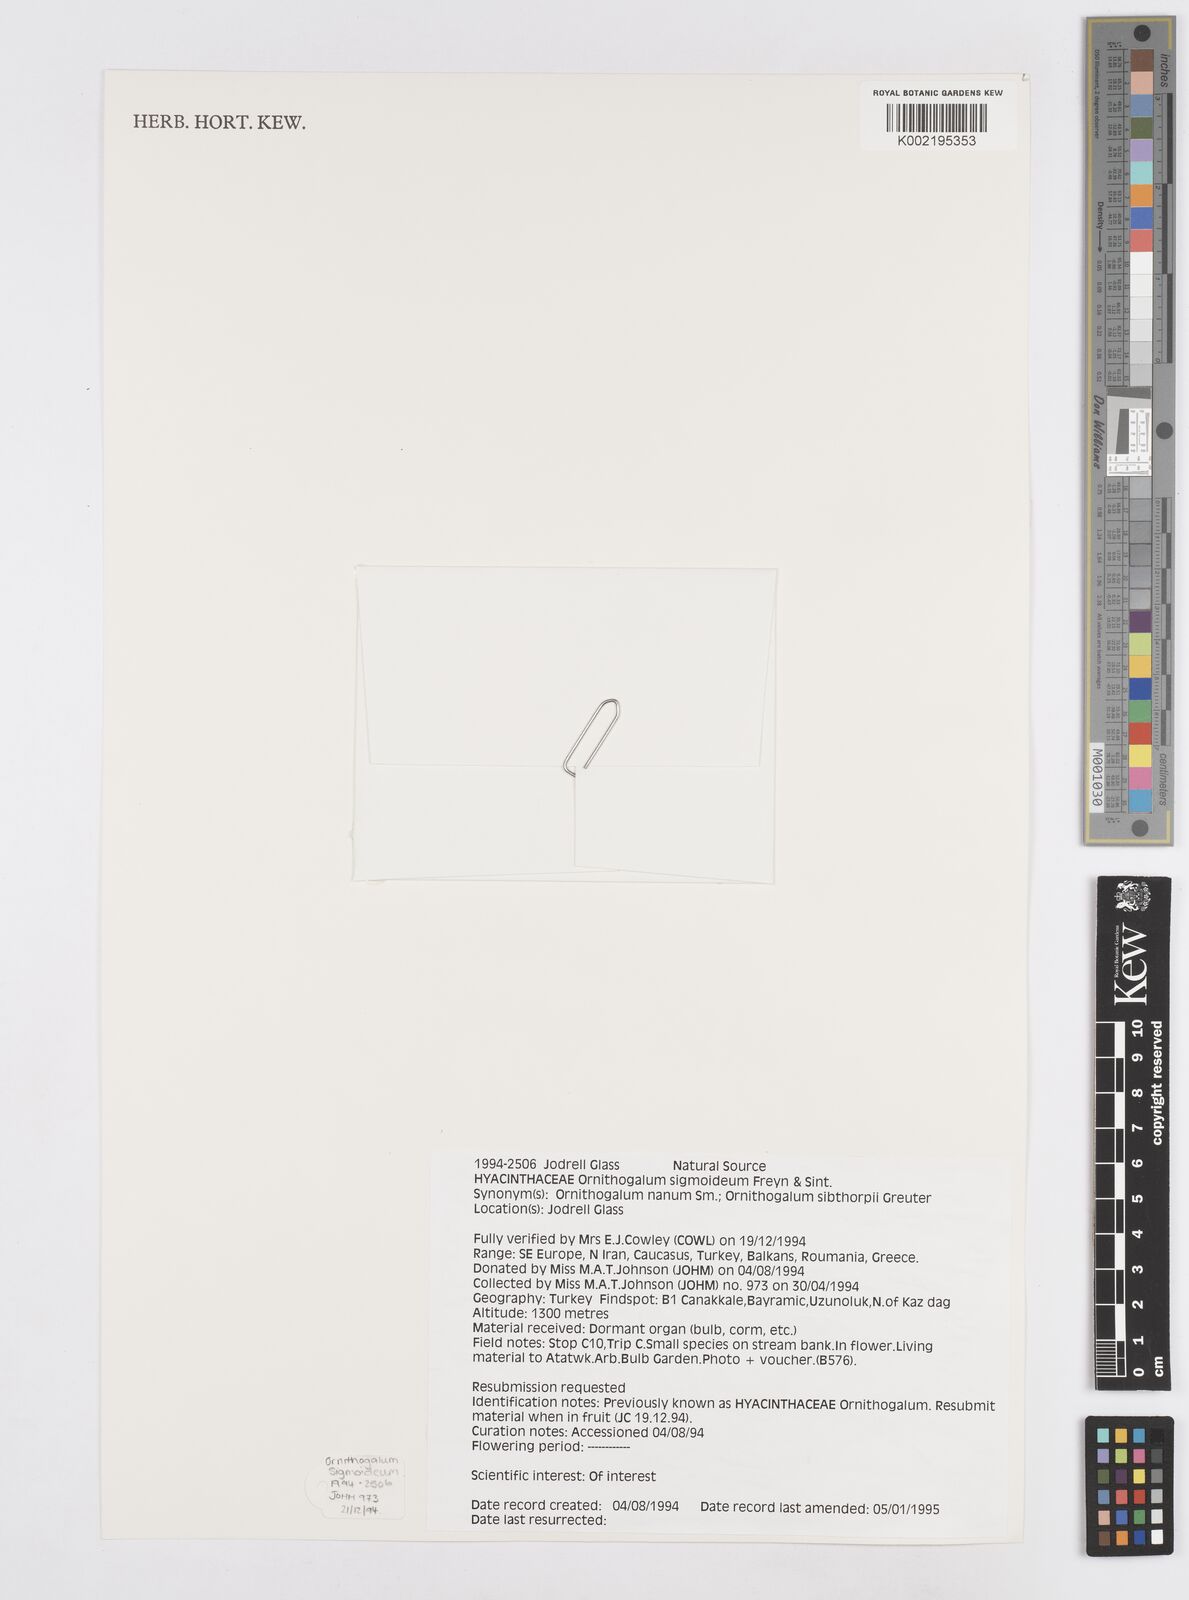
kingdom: Plantae
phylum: Tracheophyta
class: Liliopsida
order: Asparagales
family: Asparagaceae
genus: Ornithogalum
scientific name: Ornithogalum sigmoideum
